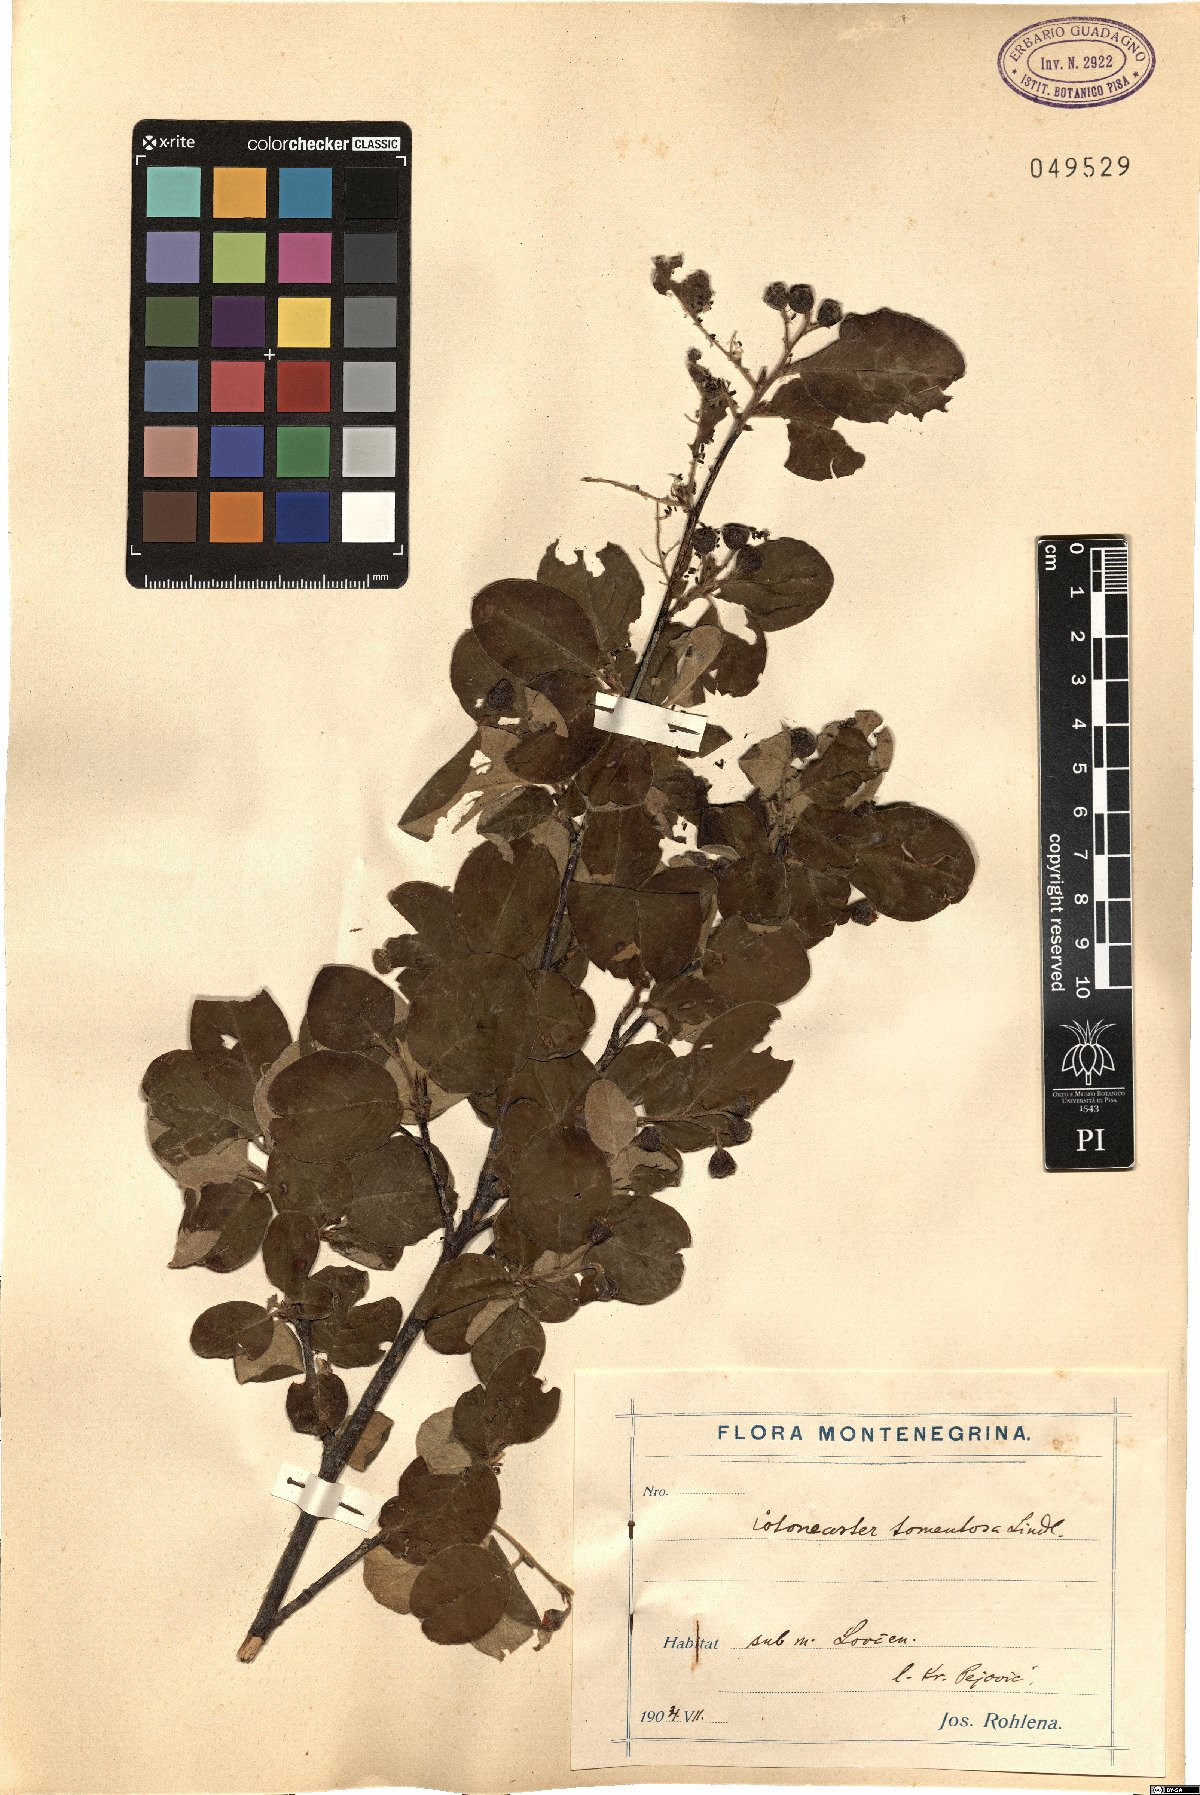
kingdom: Plantae
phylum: Tracheophyta
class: Magnoliopsida
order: Rosales
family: Rosaceae
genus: Cotoneaster
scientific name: Cotoneaster tomentosus
